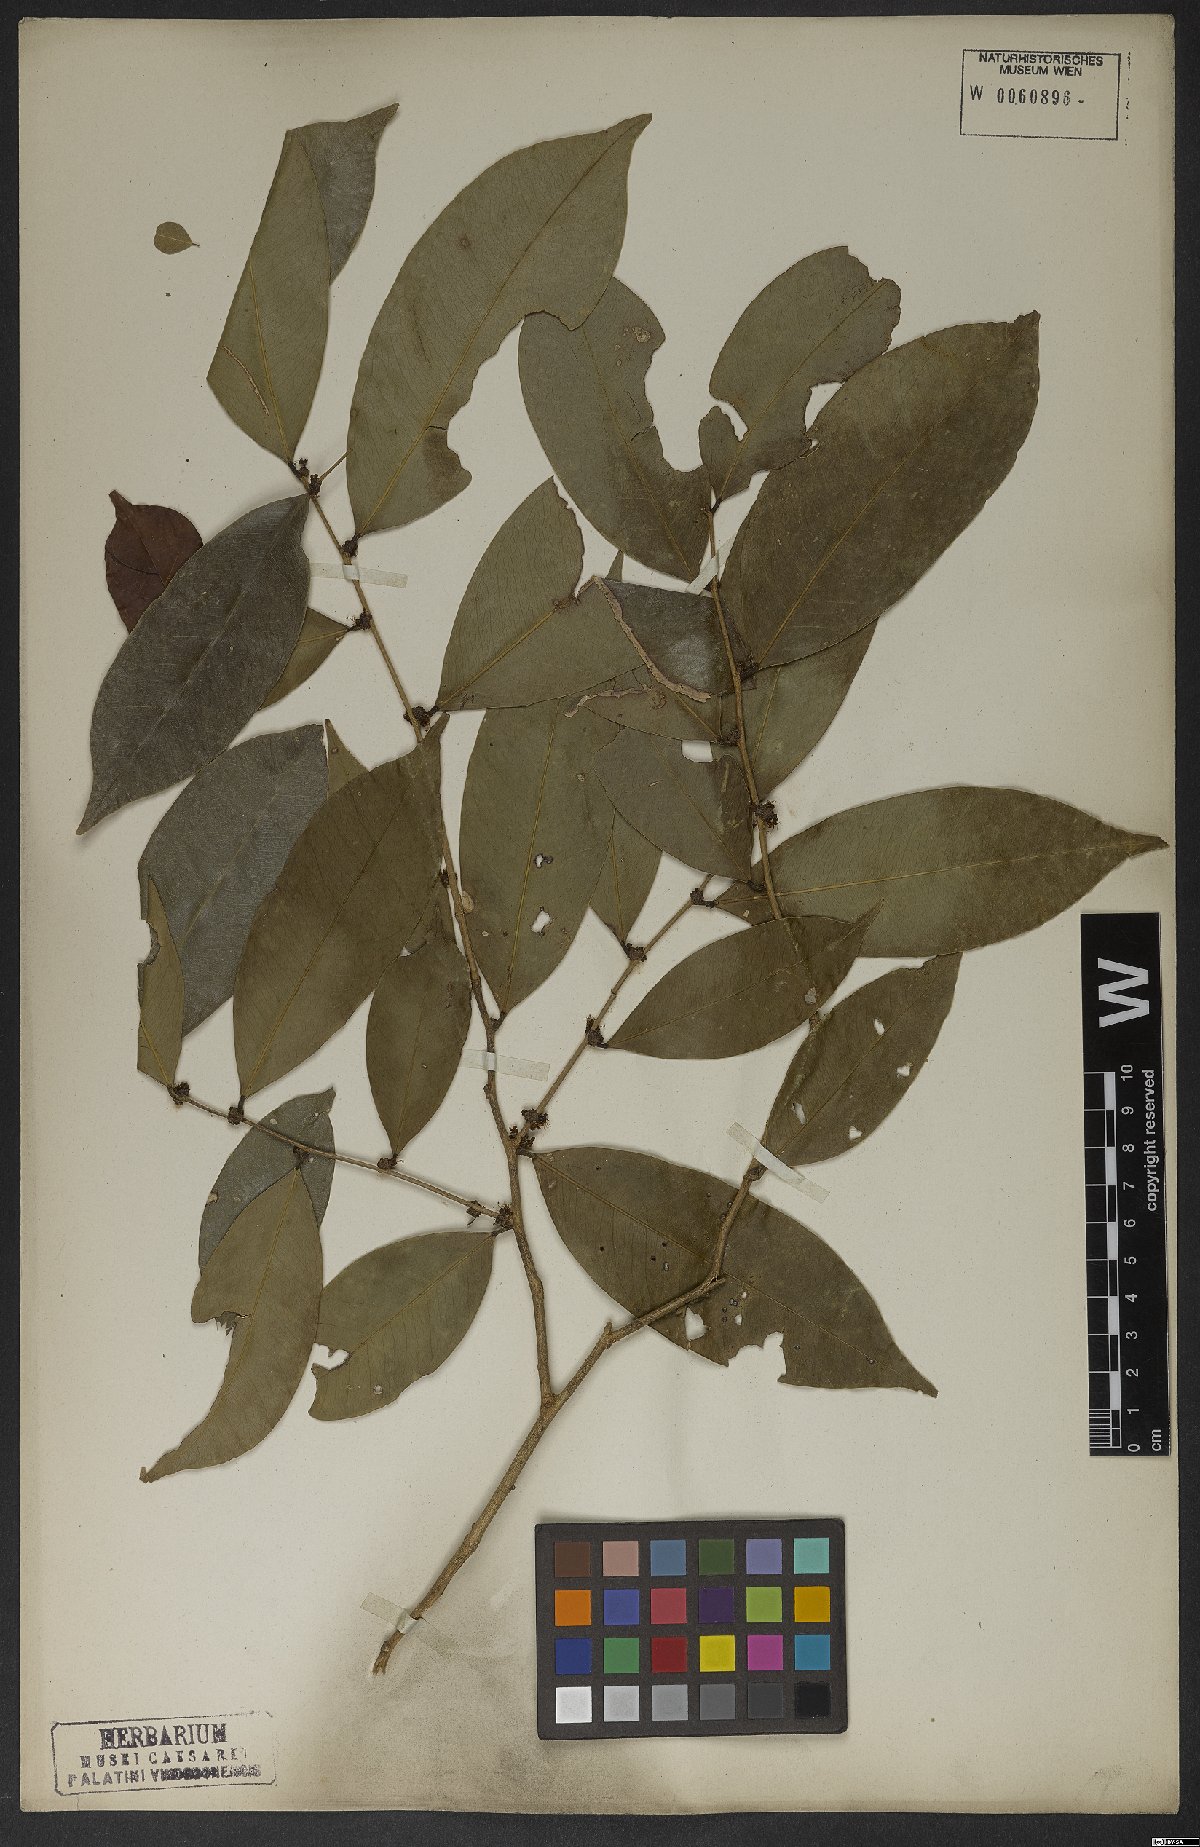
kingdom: Plantae
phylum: Tracheophyta
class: Magnoliopsida
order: Malpighiales
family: Phyllanthaceae
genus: Jablonskia
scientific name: Jablonskia congesta
